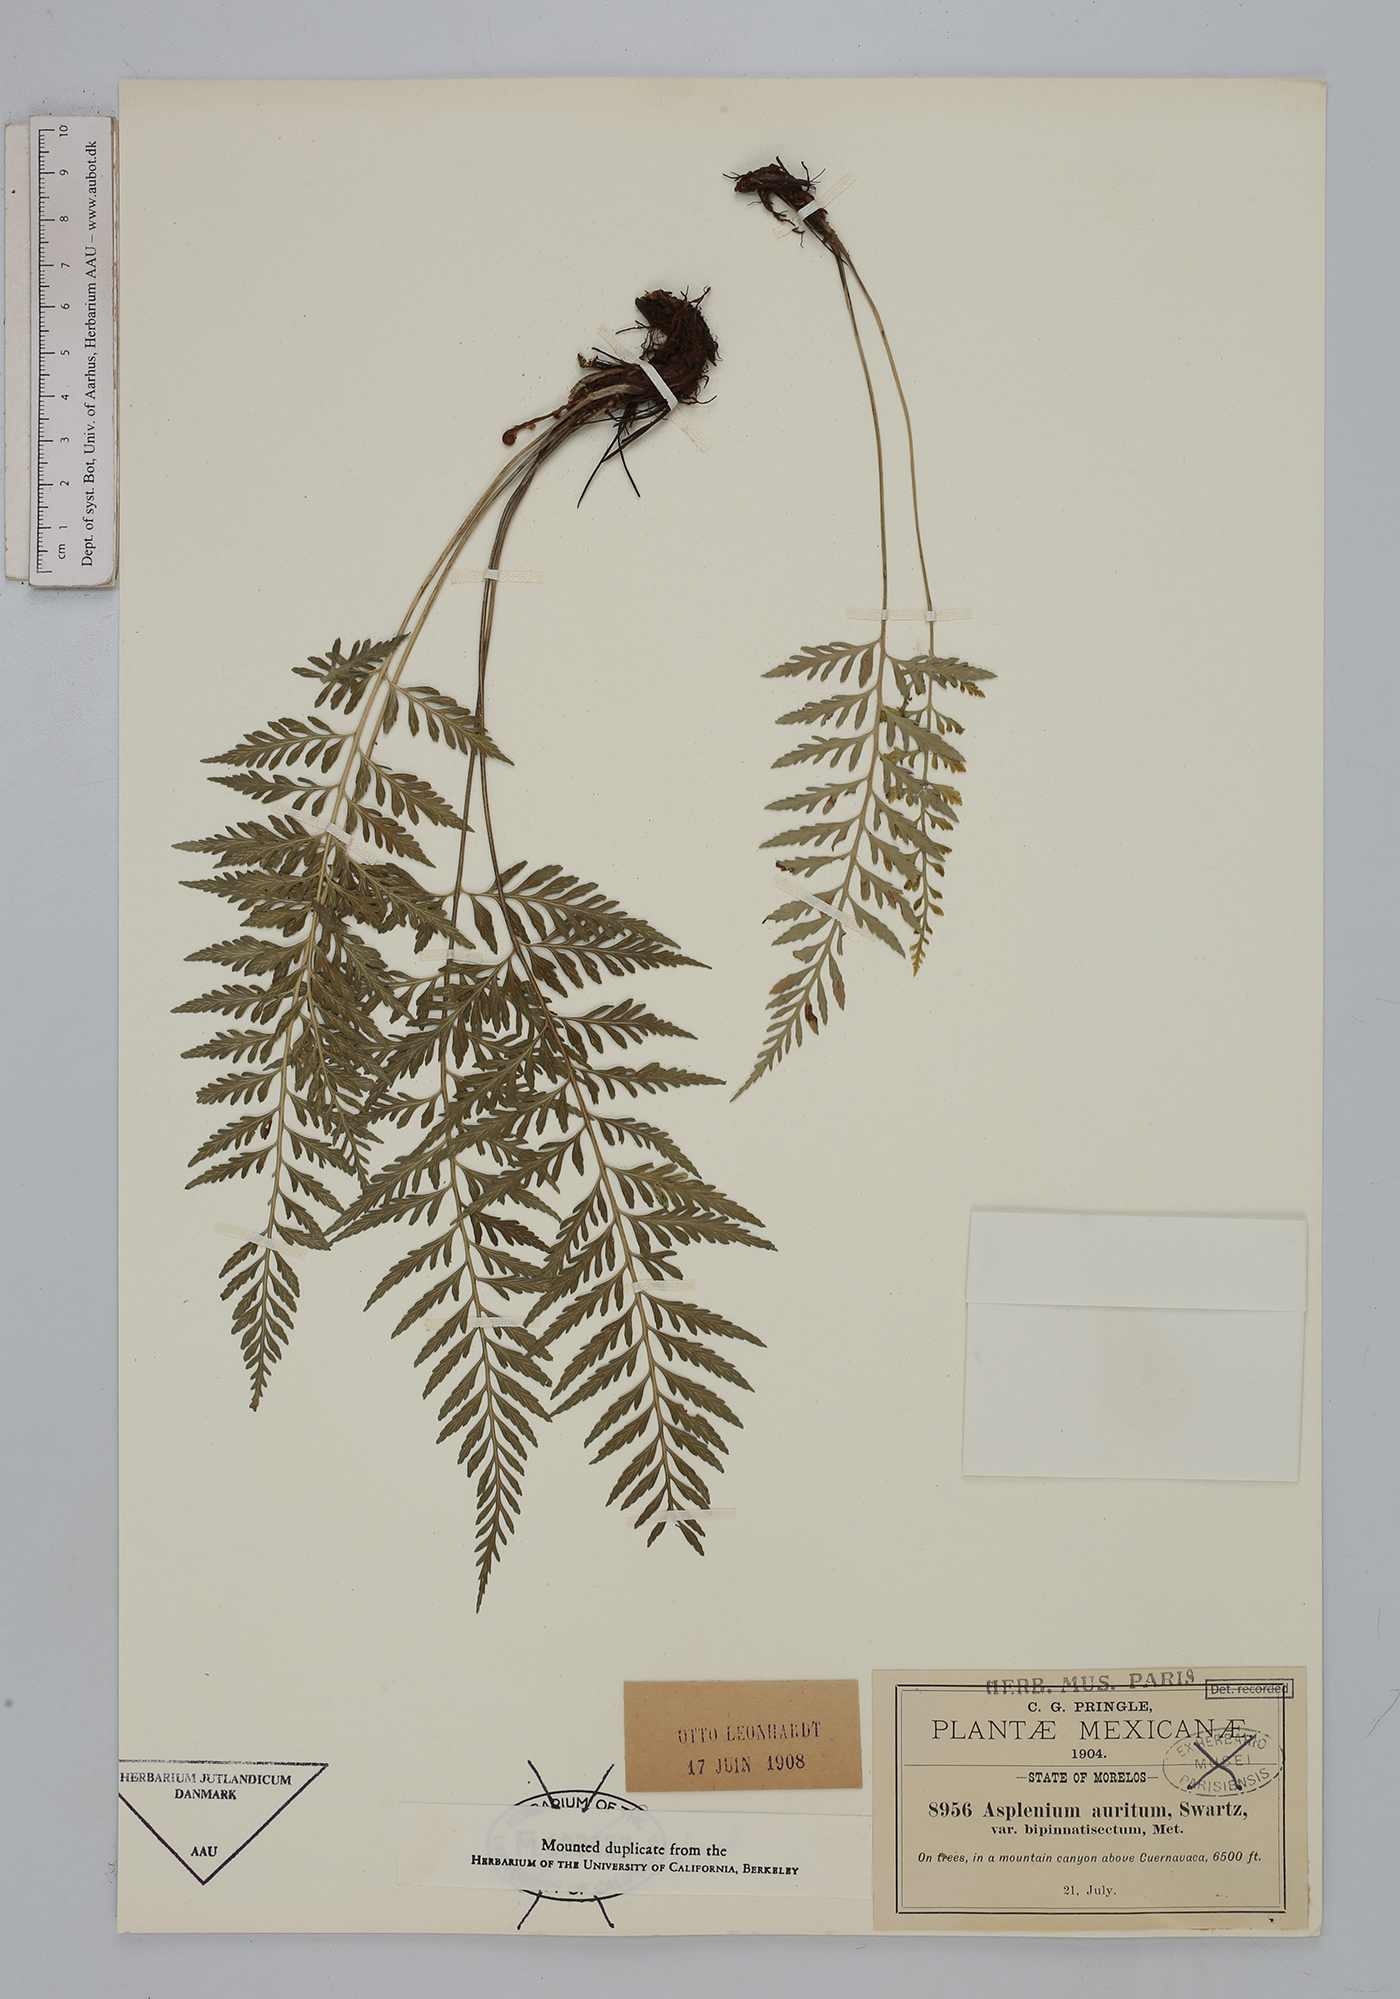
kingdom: Plantae
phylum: Tracheophyta
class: Polypodiopsida
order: Polypodiales
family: Aspleniaceae
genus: Asplenium
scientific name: Asplenium auritum
